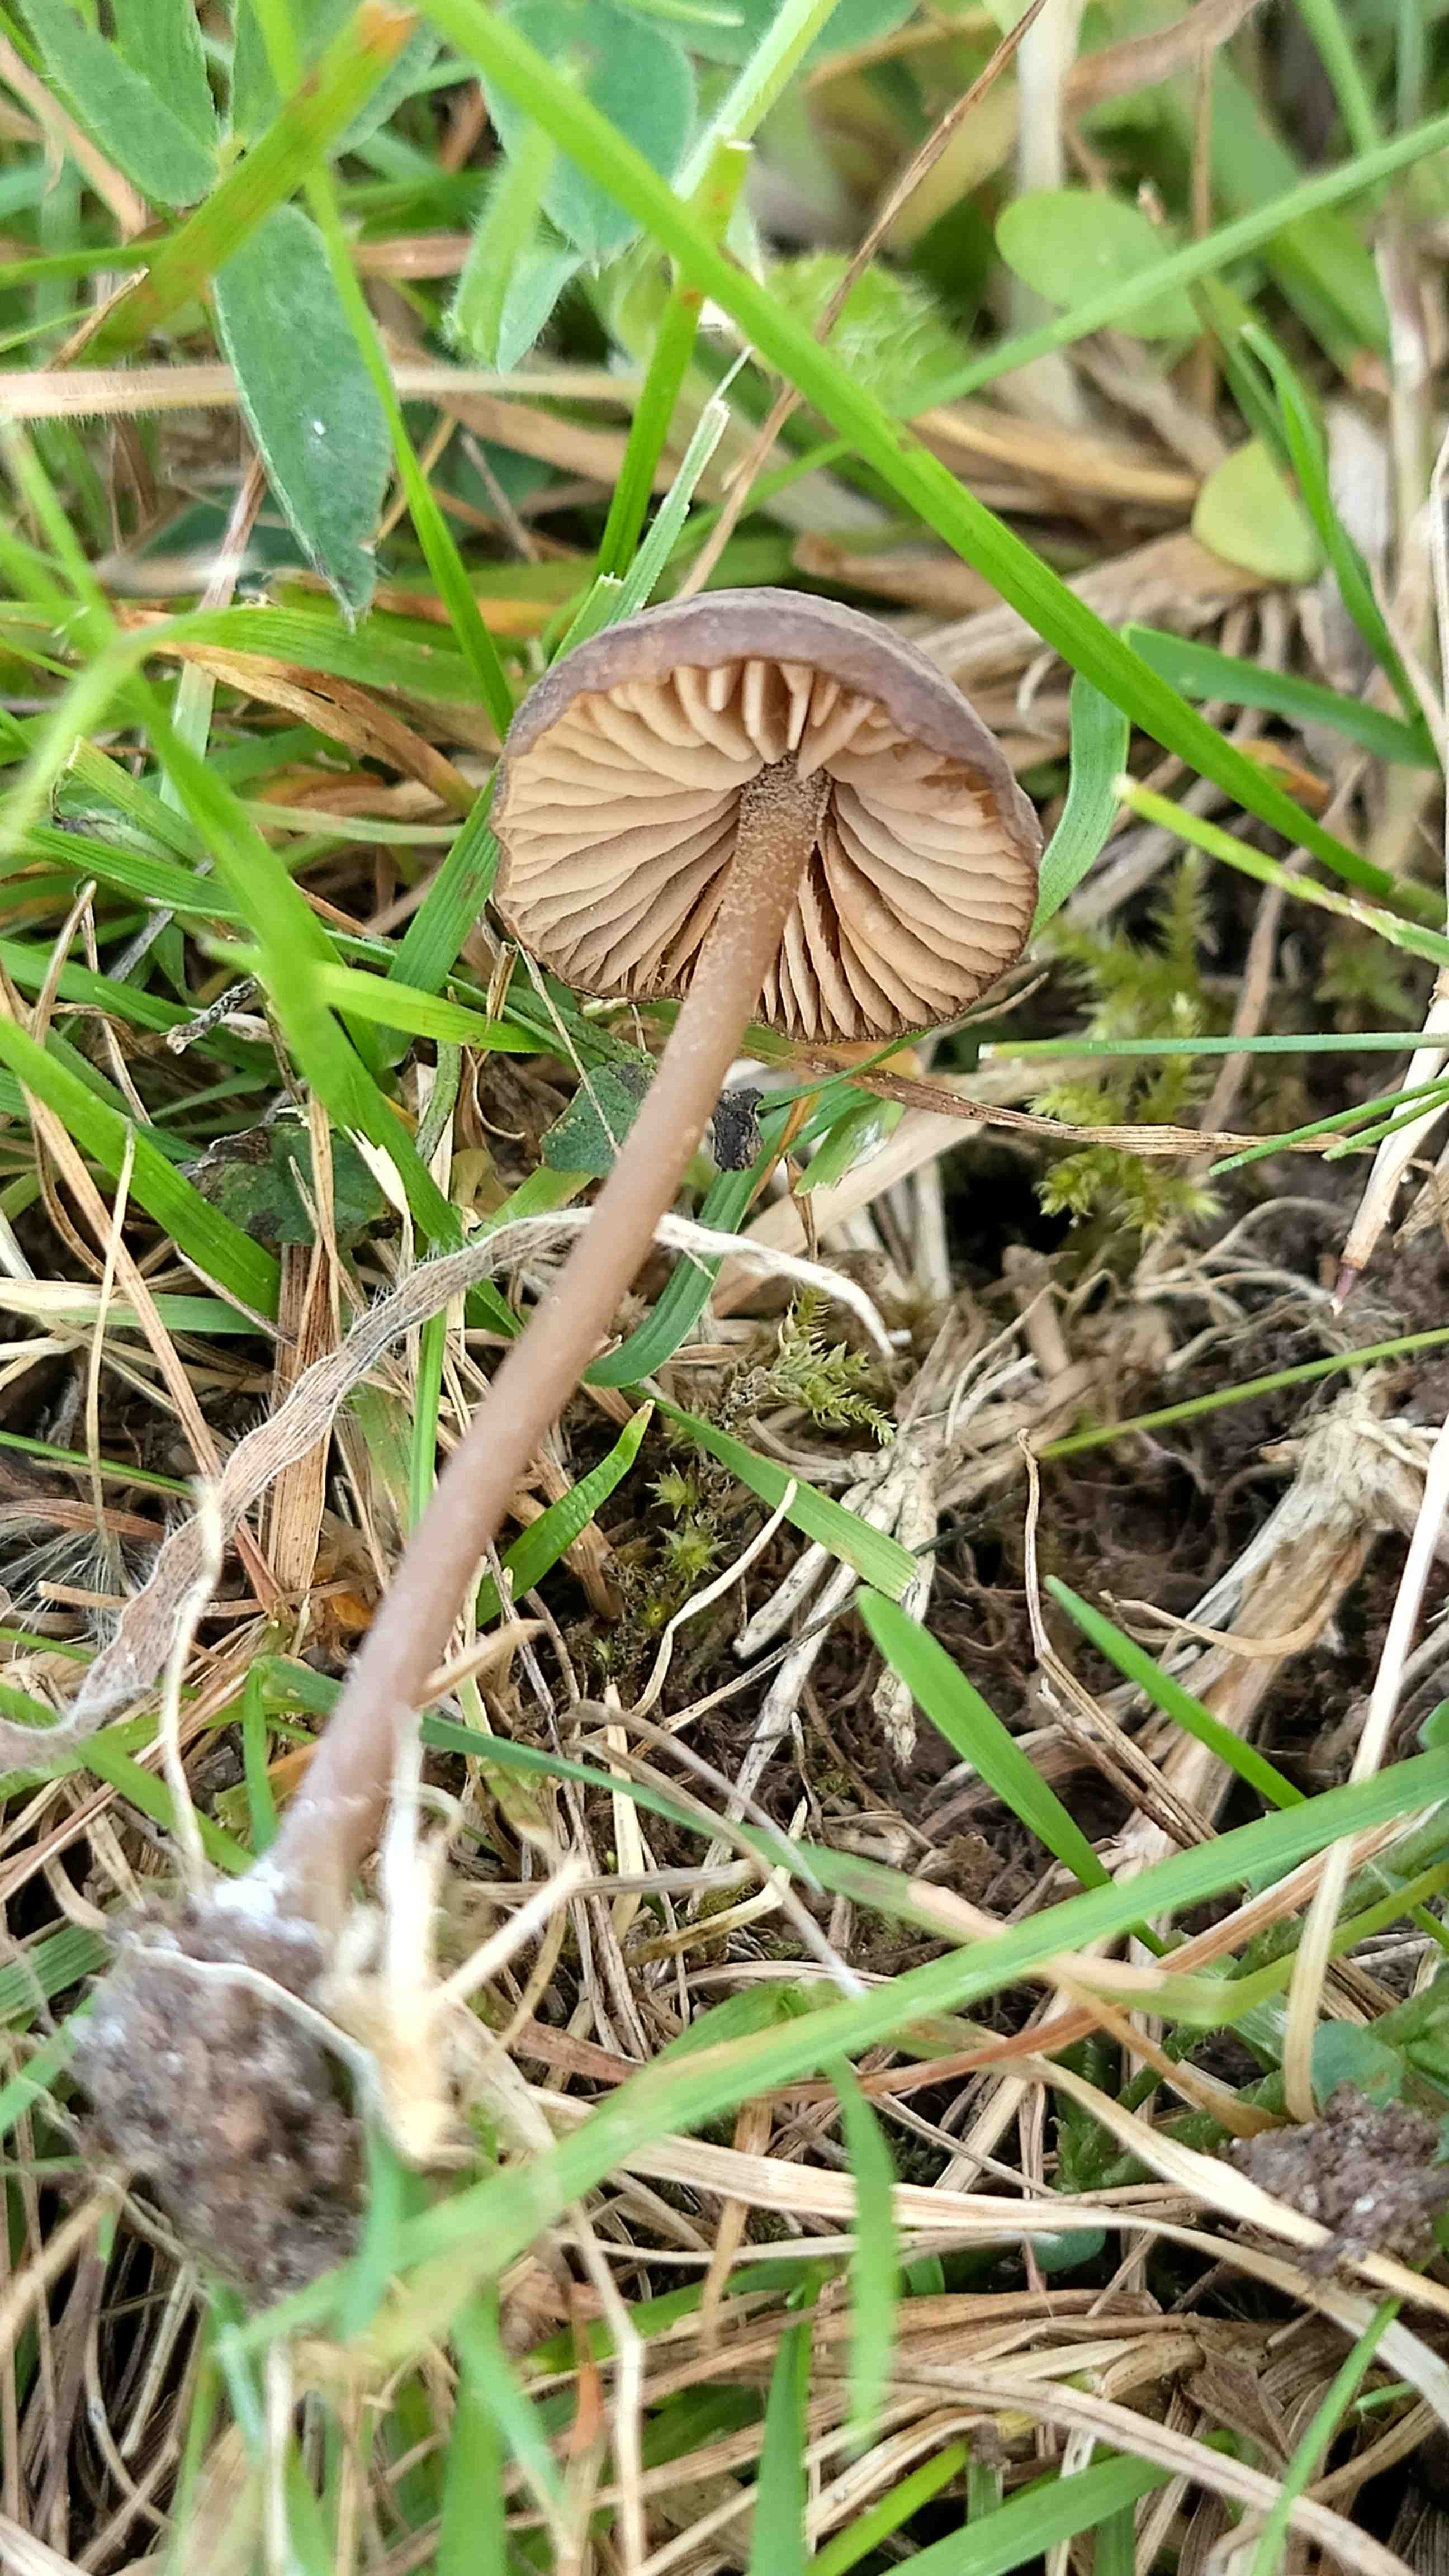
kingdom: Fungi
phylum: Basidiomycota
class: Agaricomycetes
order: Agaricales
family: Entolomataceae
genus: Entoloma
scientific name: Entoloma clandestinum
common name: tykbladet rødblad
